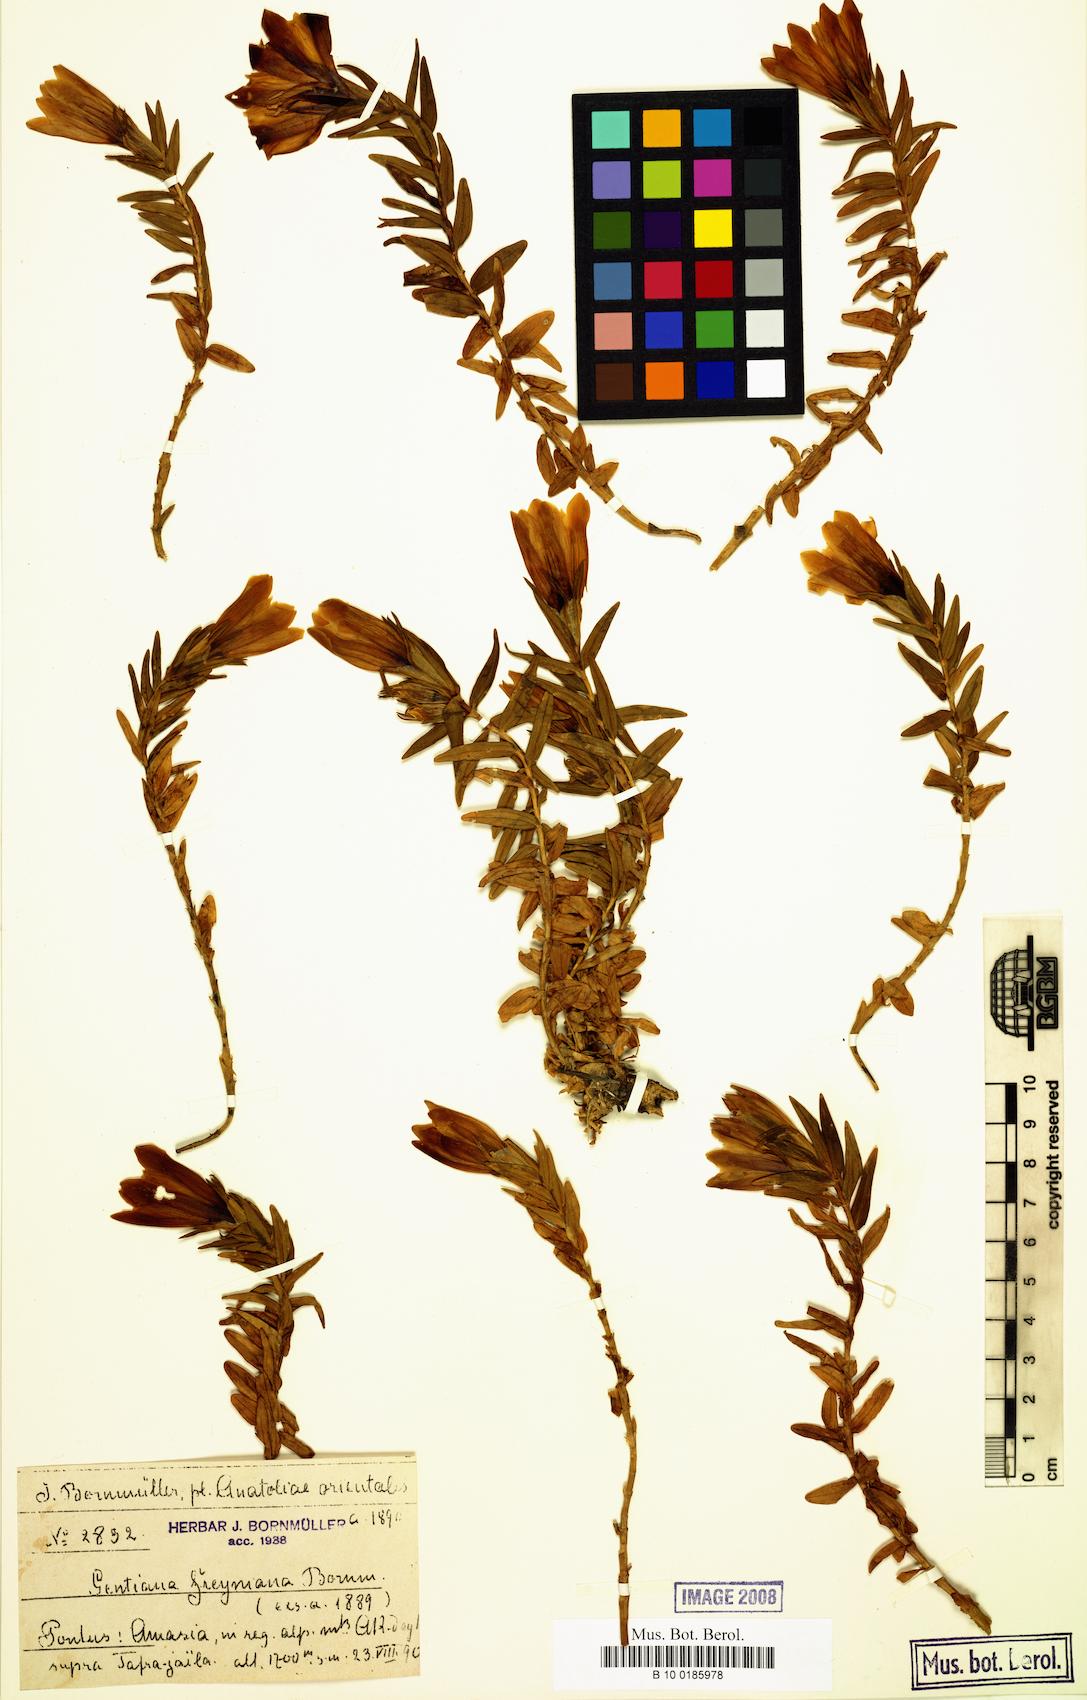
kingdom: Plantae
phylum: Tracheophyta
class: Magnoliopsida
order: Gentianales
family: Gentianaceae
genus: Gentiana
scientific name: Gentiana septemfida
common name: Crested gentian
